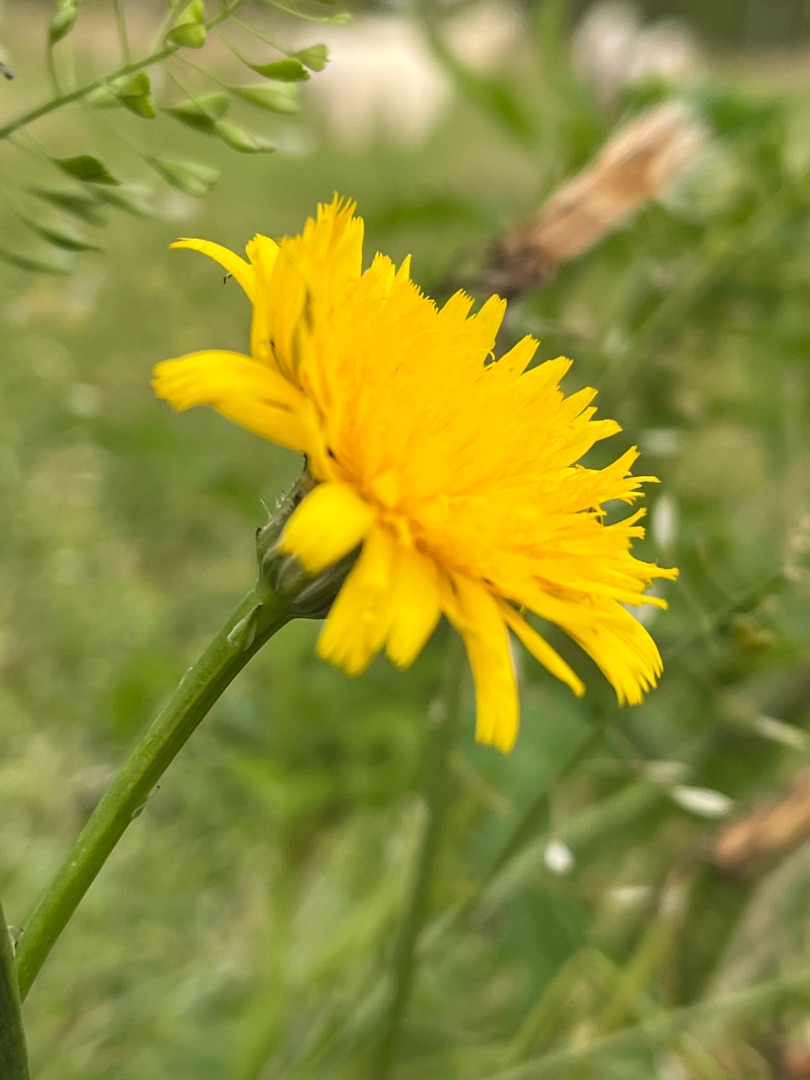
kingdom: Plantae
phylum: Tracheophyta
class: Magnoliopsida
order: Asterales
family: Asteraceae
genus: Hypochaeris
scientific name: Hypochaeris radicata
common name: Almindelig kongepen
